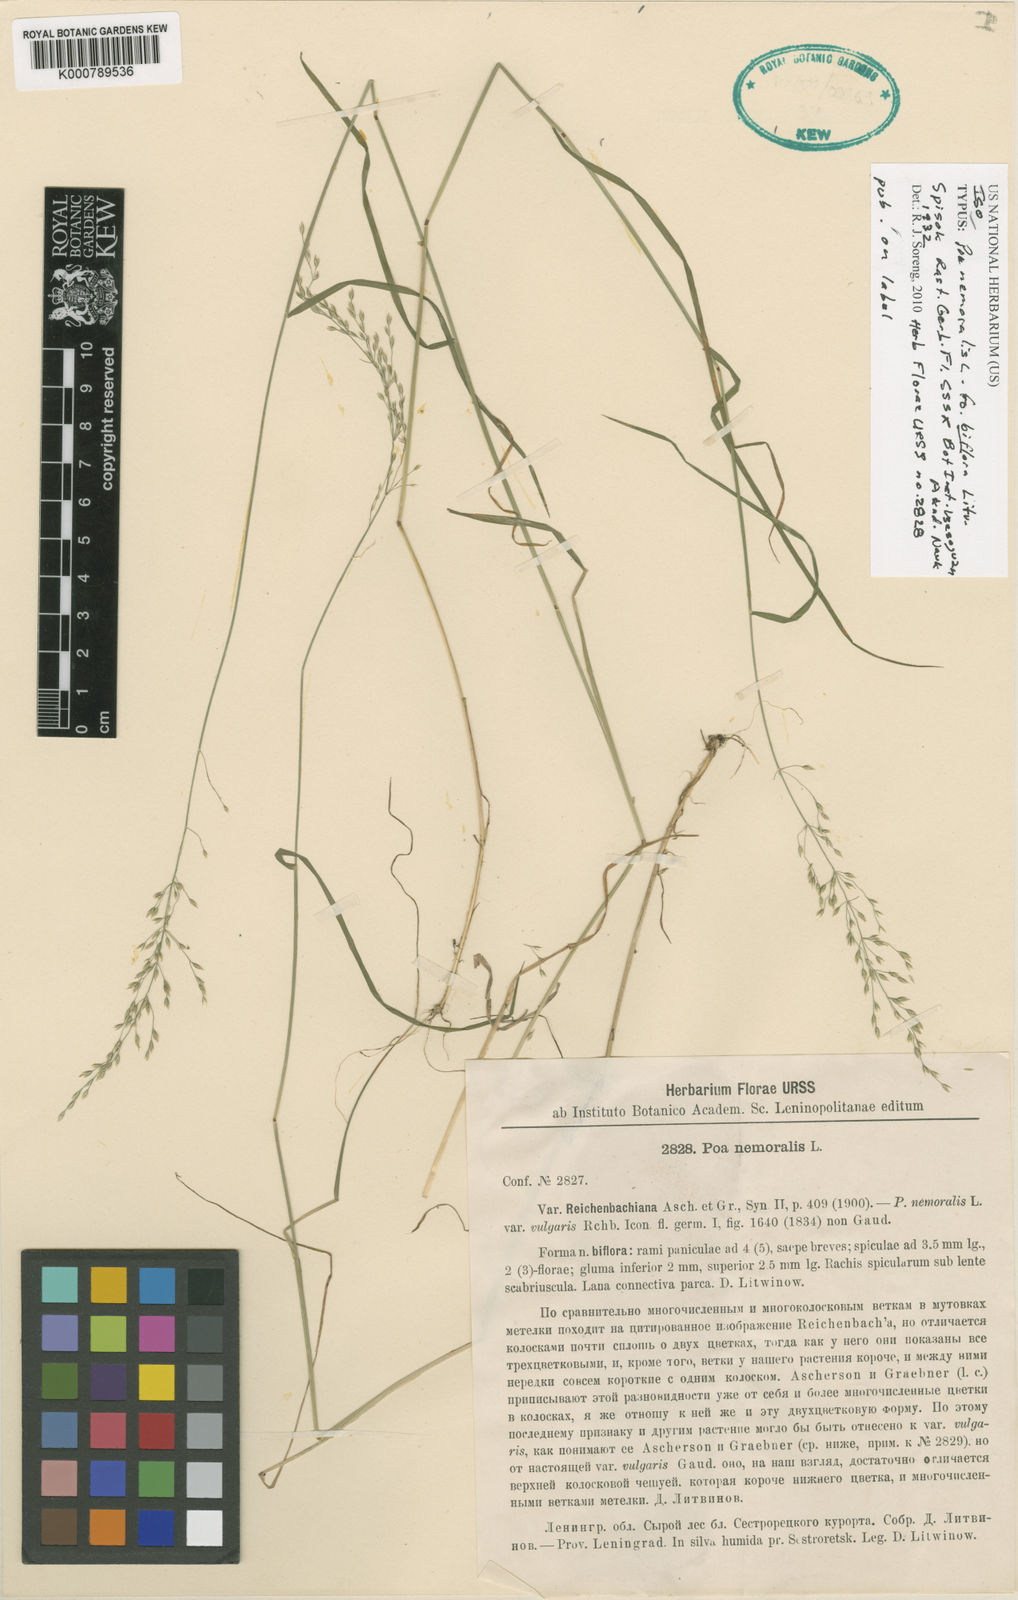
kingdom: Plantae
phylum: Tracheophyta
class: Liliopsida
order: Poales
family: Poaceae
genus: Poa
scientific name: Poa sterilis
